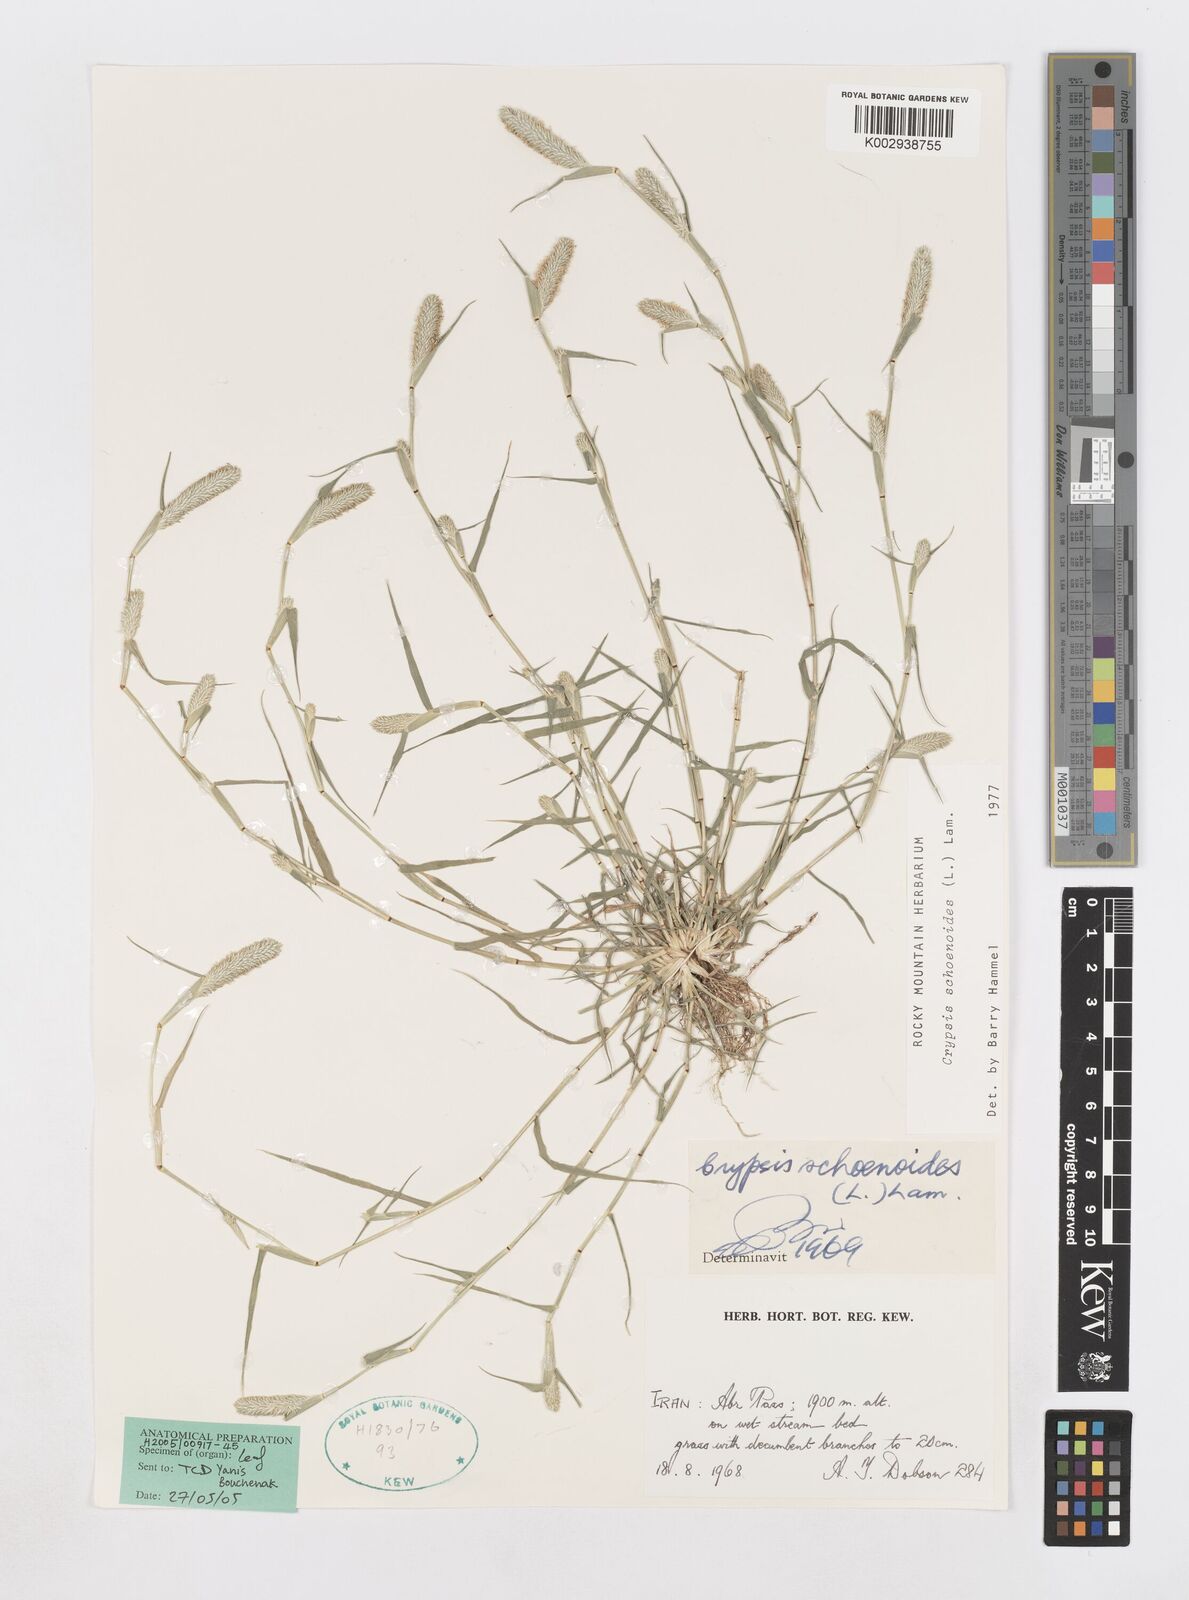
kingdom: Plantae
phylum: Tracheophyta
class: Liliopsida
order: Poales
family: Poaceae
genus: Sporobolus
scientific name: Sporobolus schoenoides
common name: Rush-like timothy
